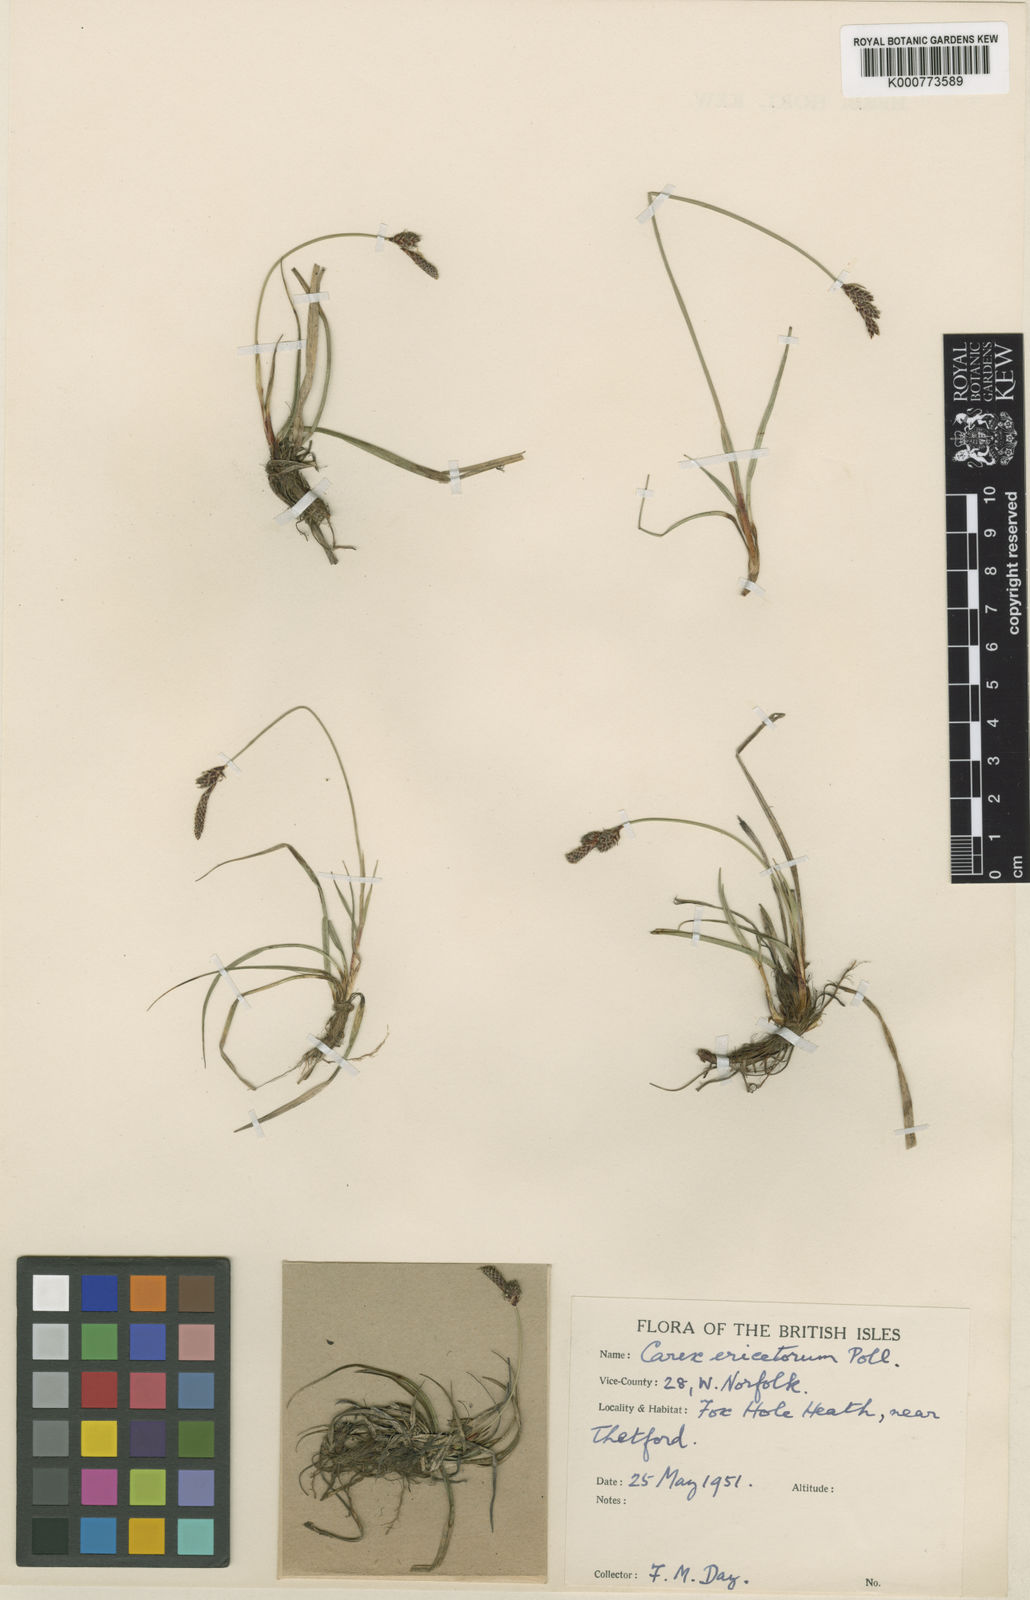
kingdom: Plantae
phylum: Tracheophyta
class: Liliopsida
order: Poales
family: Cyperaceae
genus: Carex
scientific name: Carex ericetorum
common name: Rare spring-sedge
